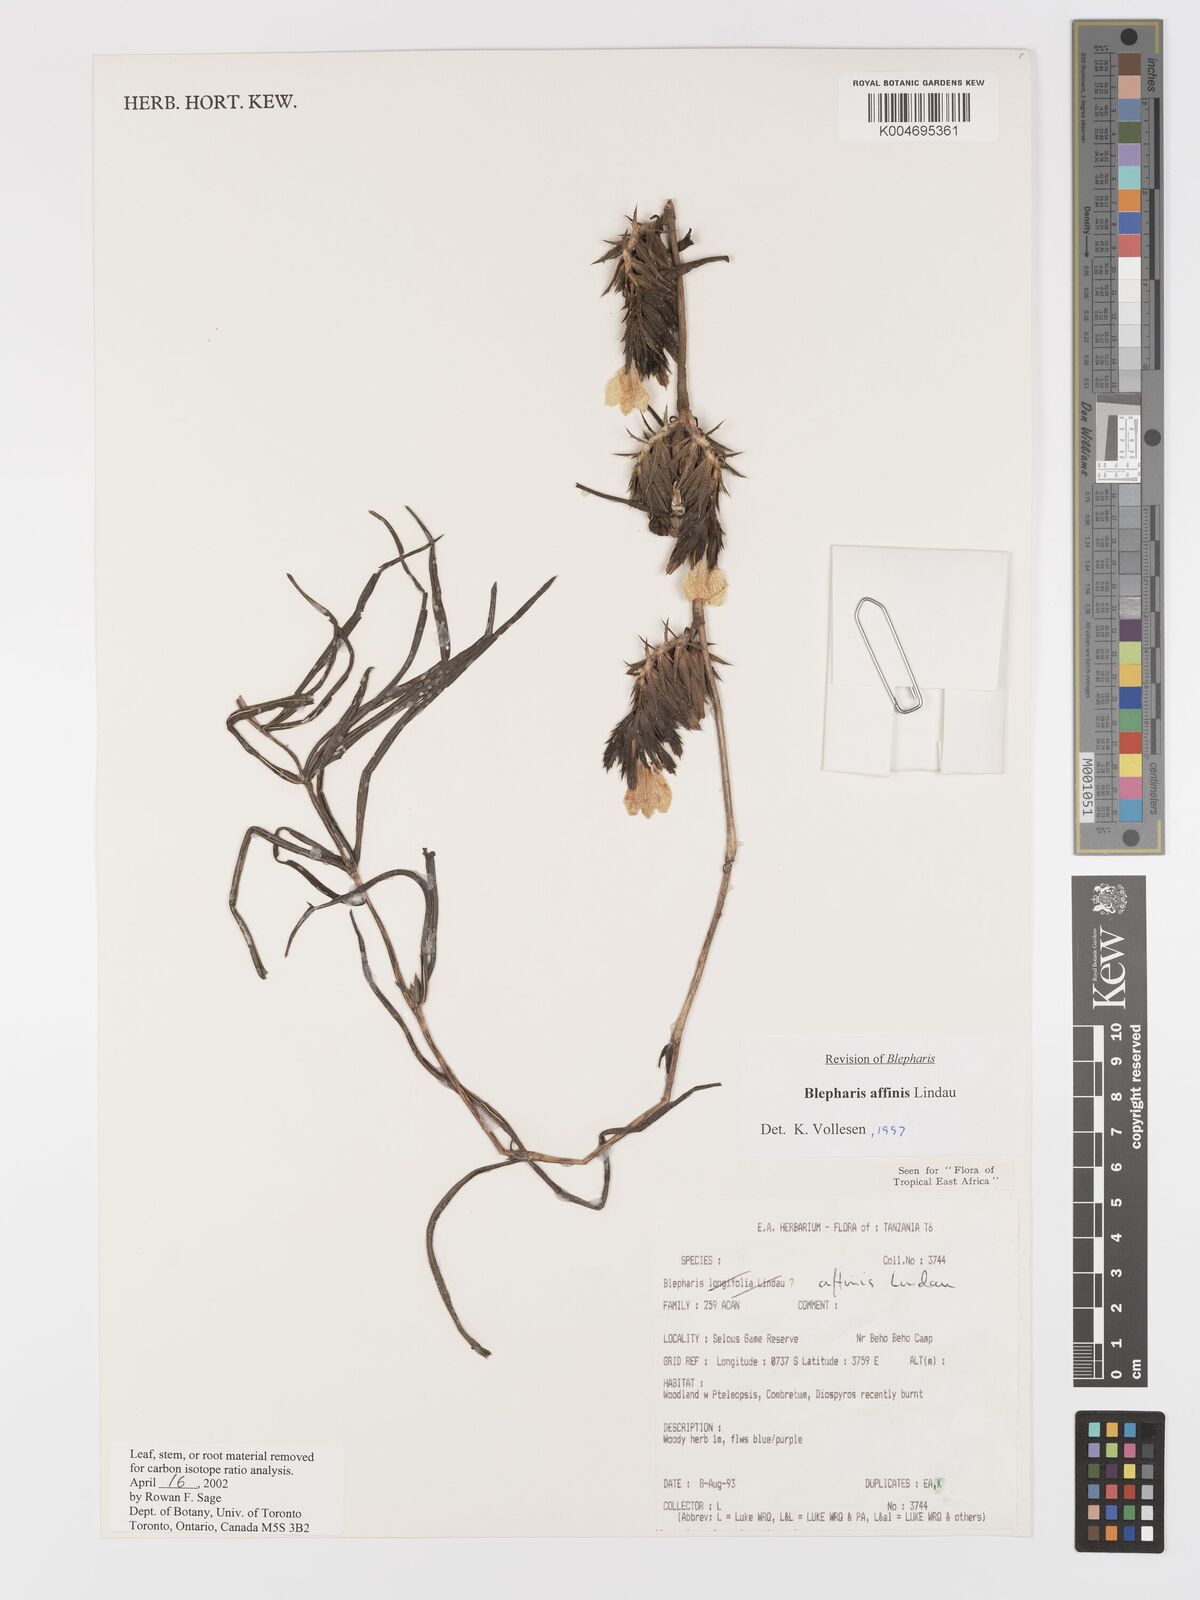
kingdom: Plantae
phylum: Tracheophyta
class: Magnoliopsida
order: Lamiales
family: Acanthaceae
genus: Blepharis
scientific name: Blepharis affinis
